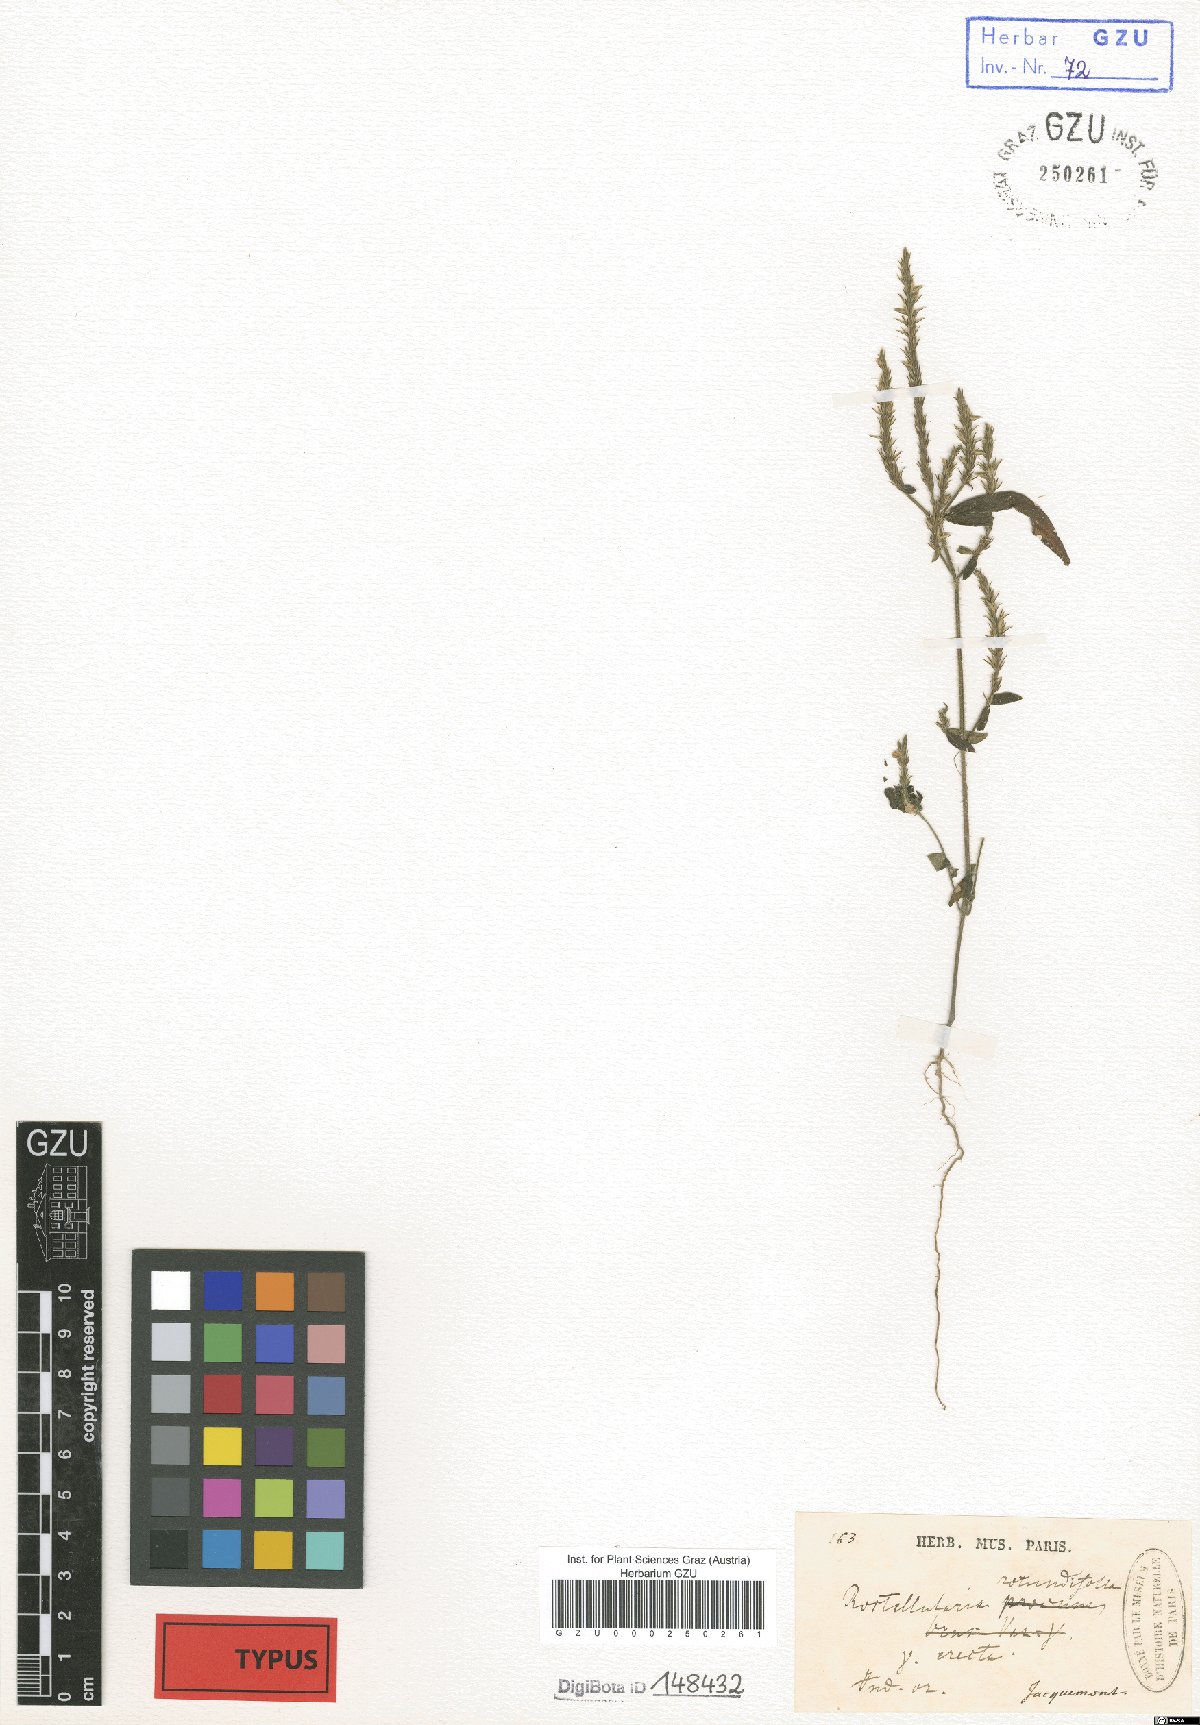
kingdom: Plantae
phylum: Tracheophyta
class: Magnoliopsida
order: Lamiales
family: Acanthaceae
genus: Rostellularia
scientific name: Rostellularia rotundifolia
